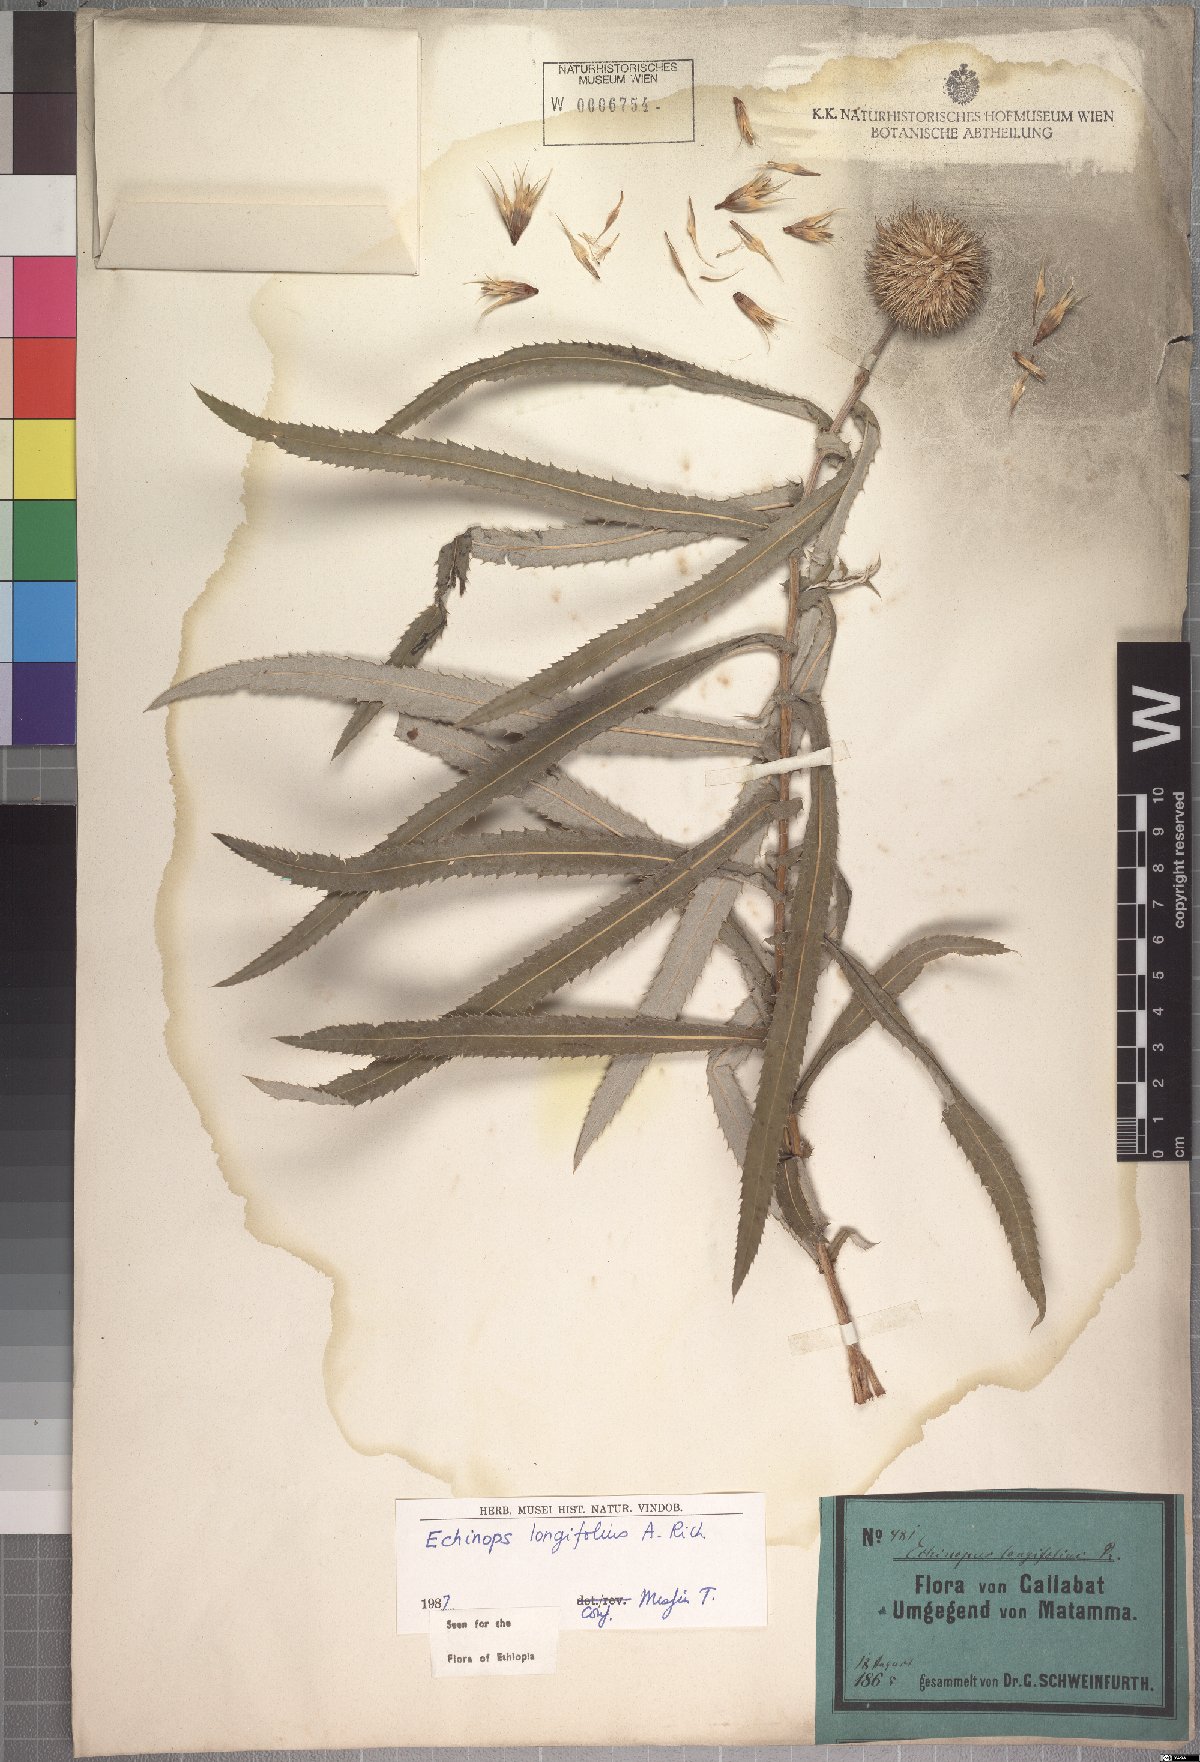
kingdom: Plantae
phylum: Tracheophyta
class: Magnoliopsida
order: Asterales
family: Asteraceae
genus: Echinops
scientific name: Echinops longifolius
